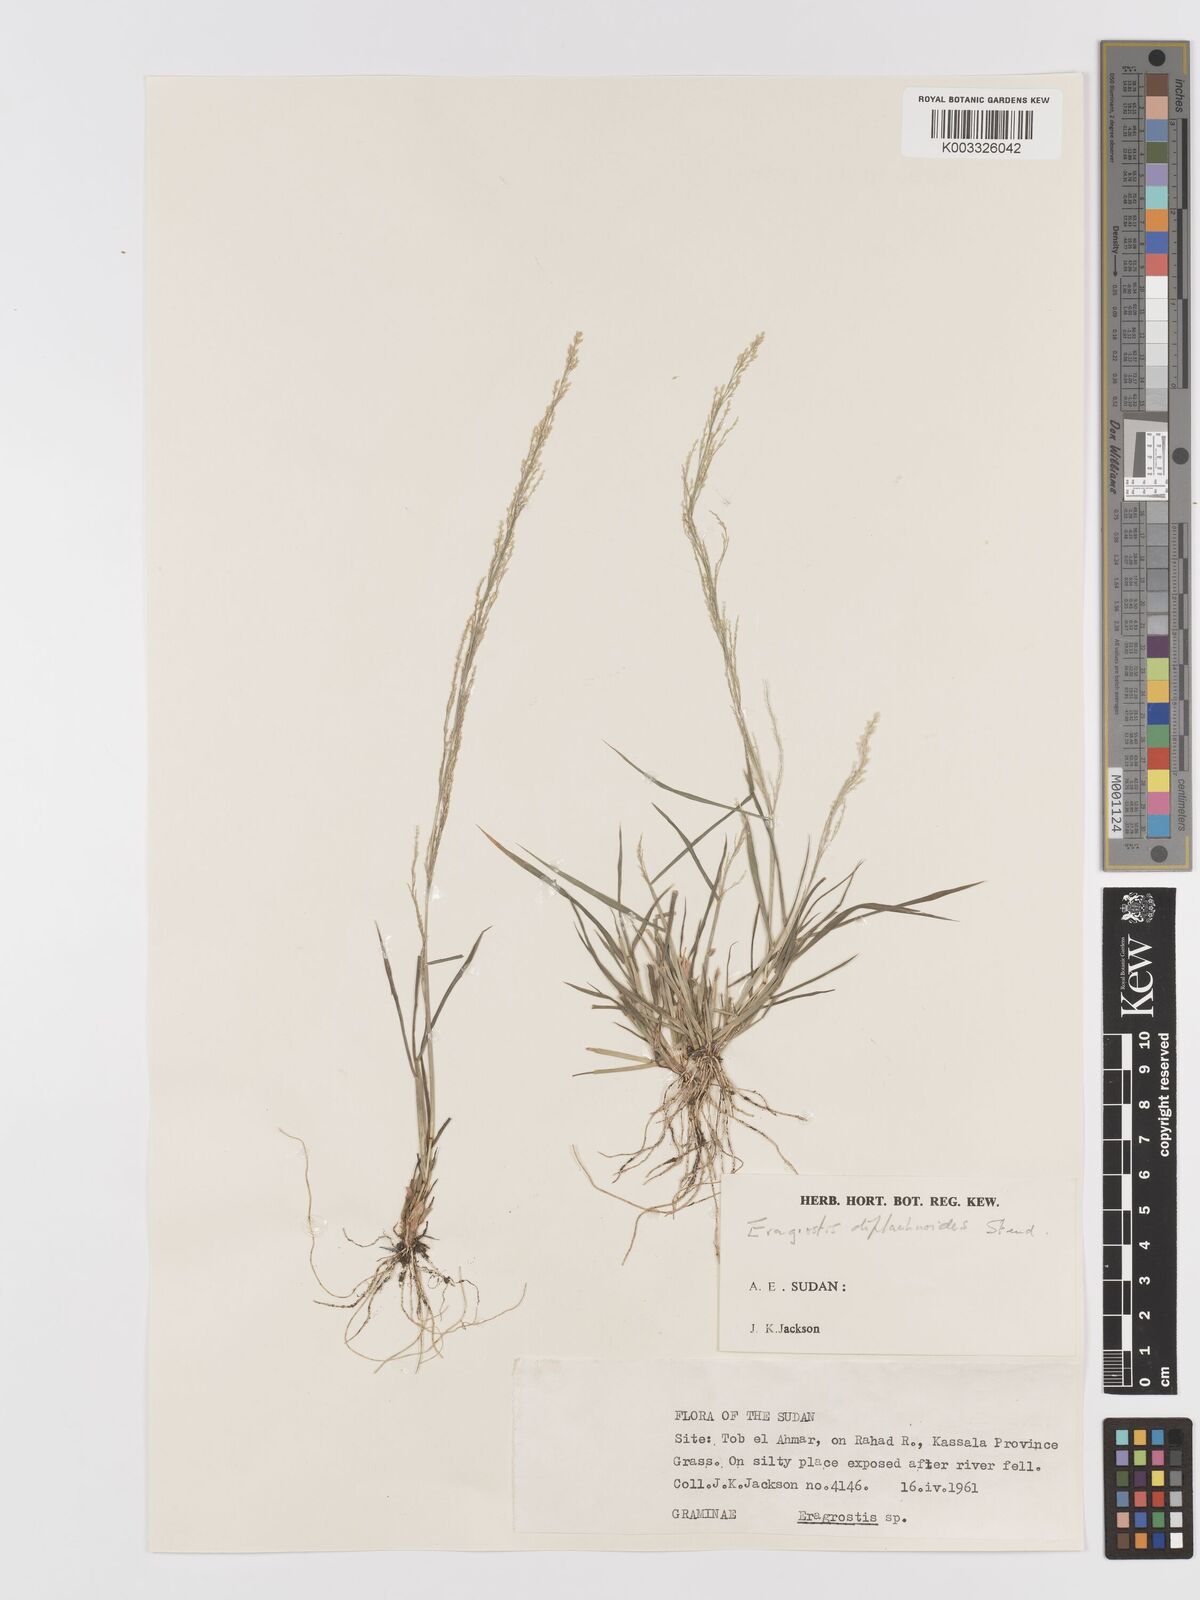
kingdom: Plantae
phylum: Tracheophyta
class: Liliopsida
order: Poales
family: Poaceae
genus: Eragrostis
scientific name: Eragrostis japonica
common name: Pond lovegrass
